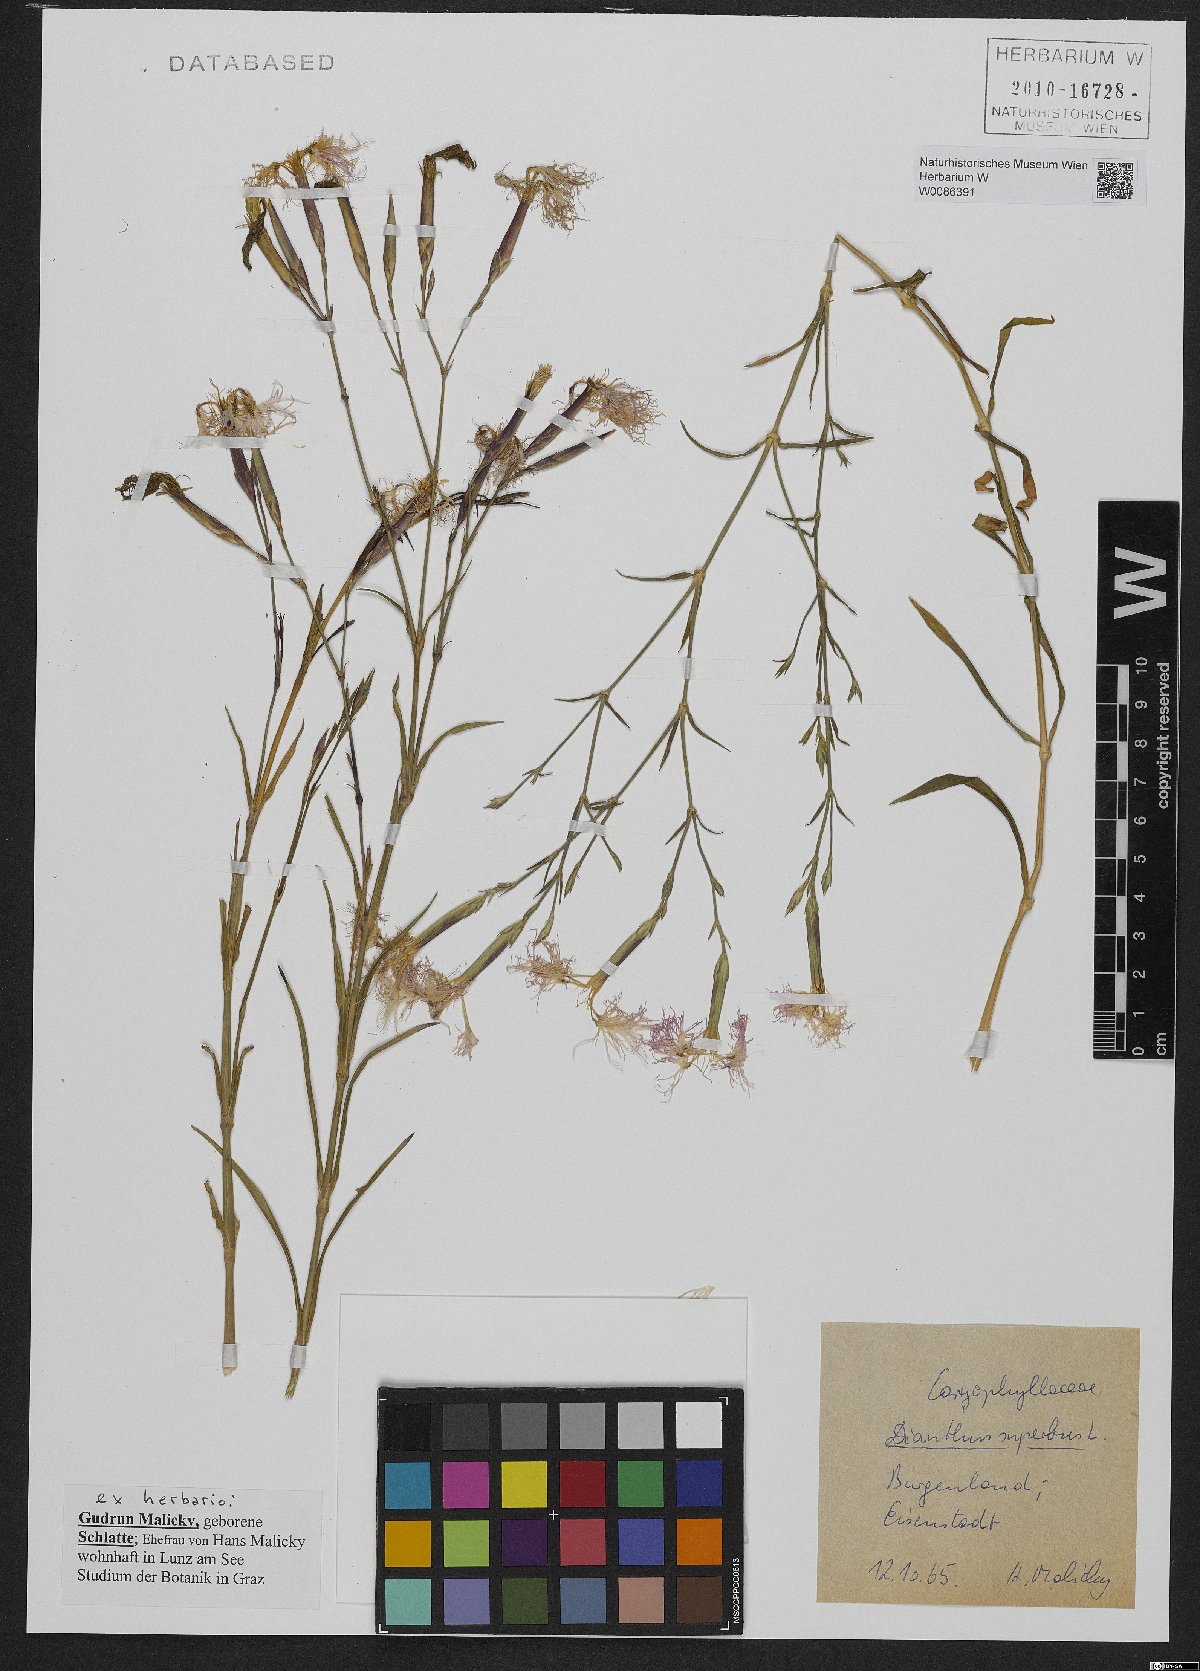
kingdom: Plantae
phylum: Tracheophyta
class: Magnoliopsida
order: Caryophyllales
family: Caryophyllaceae
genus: Dianthus
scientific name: Dianthus superbus
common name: Fringed pink
